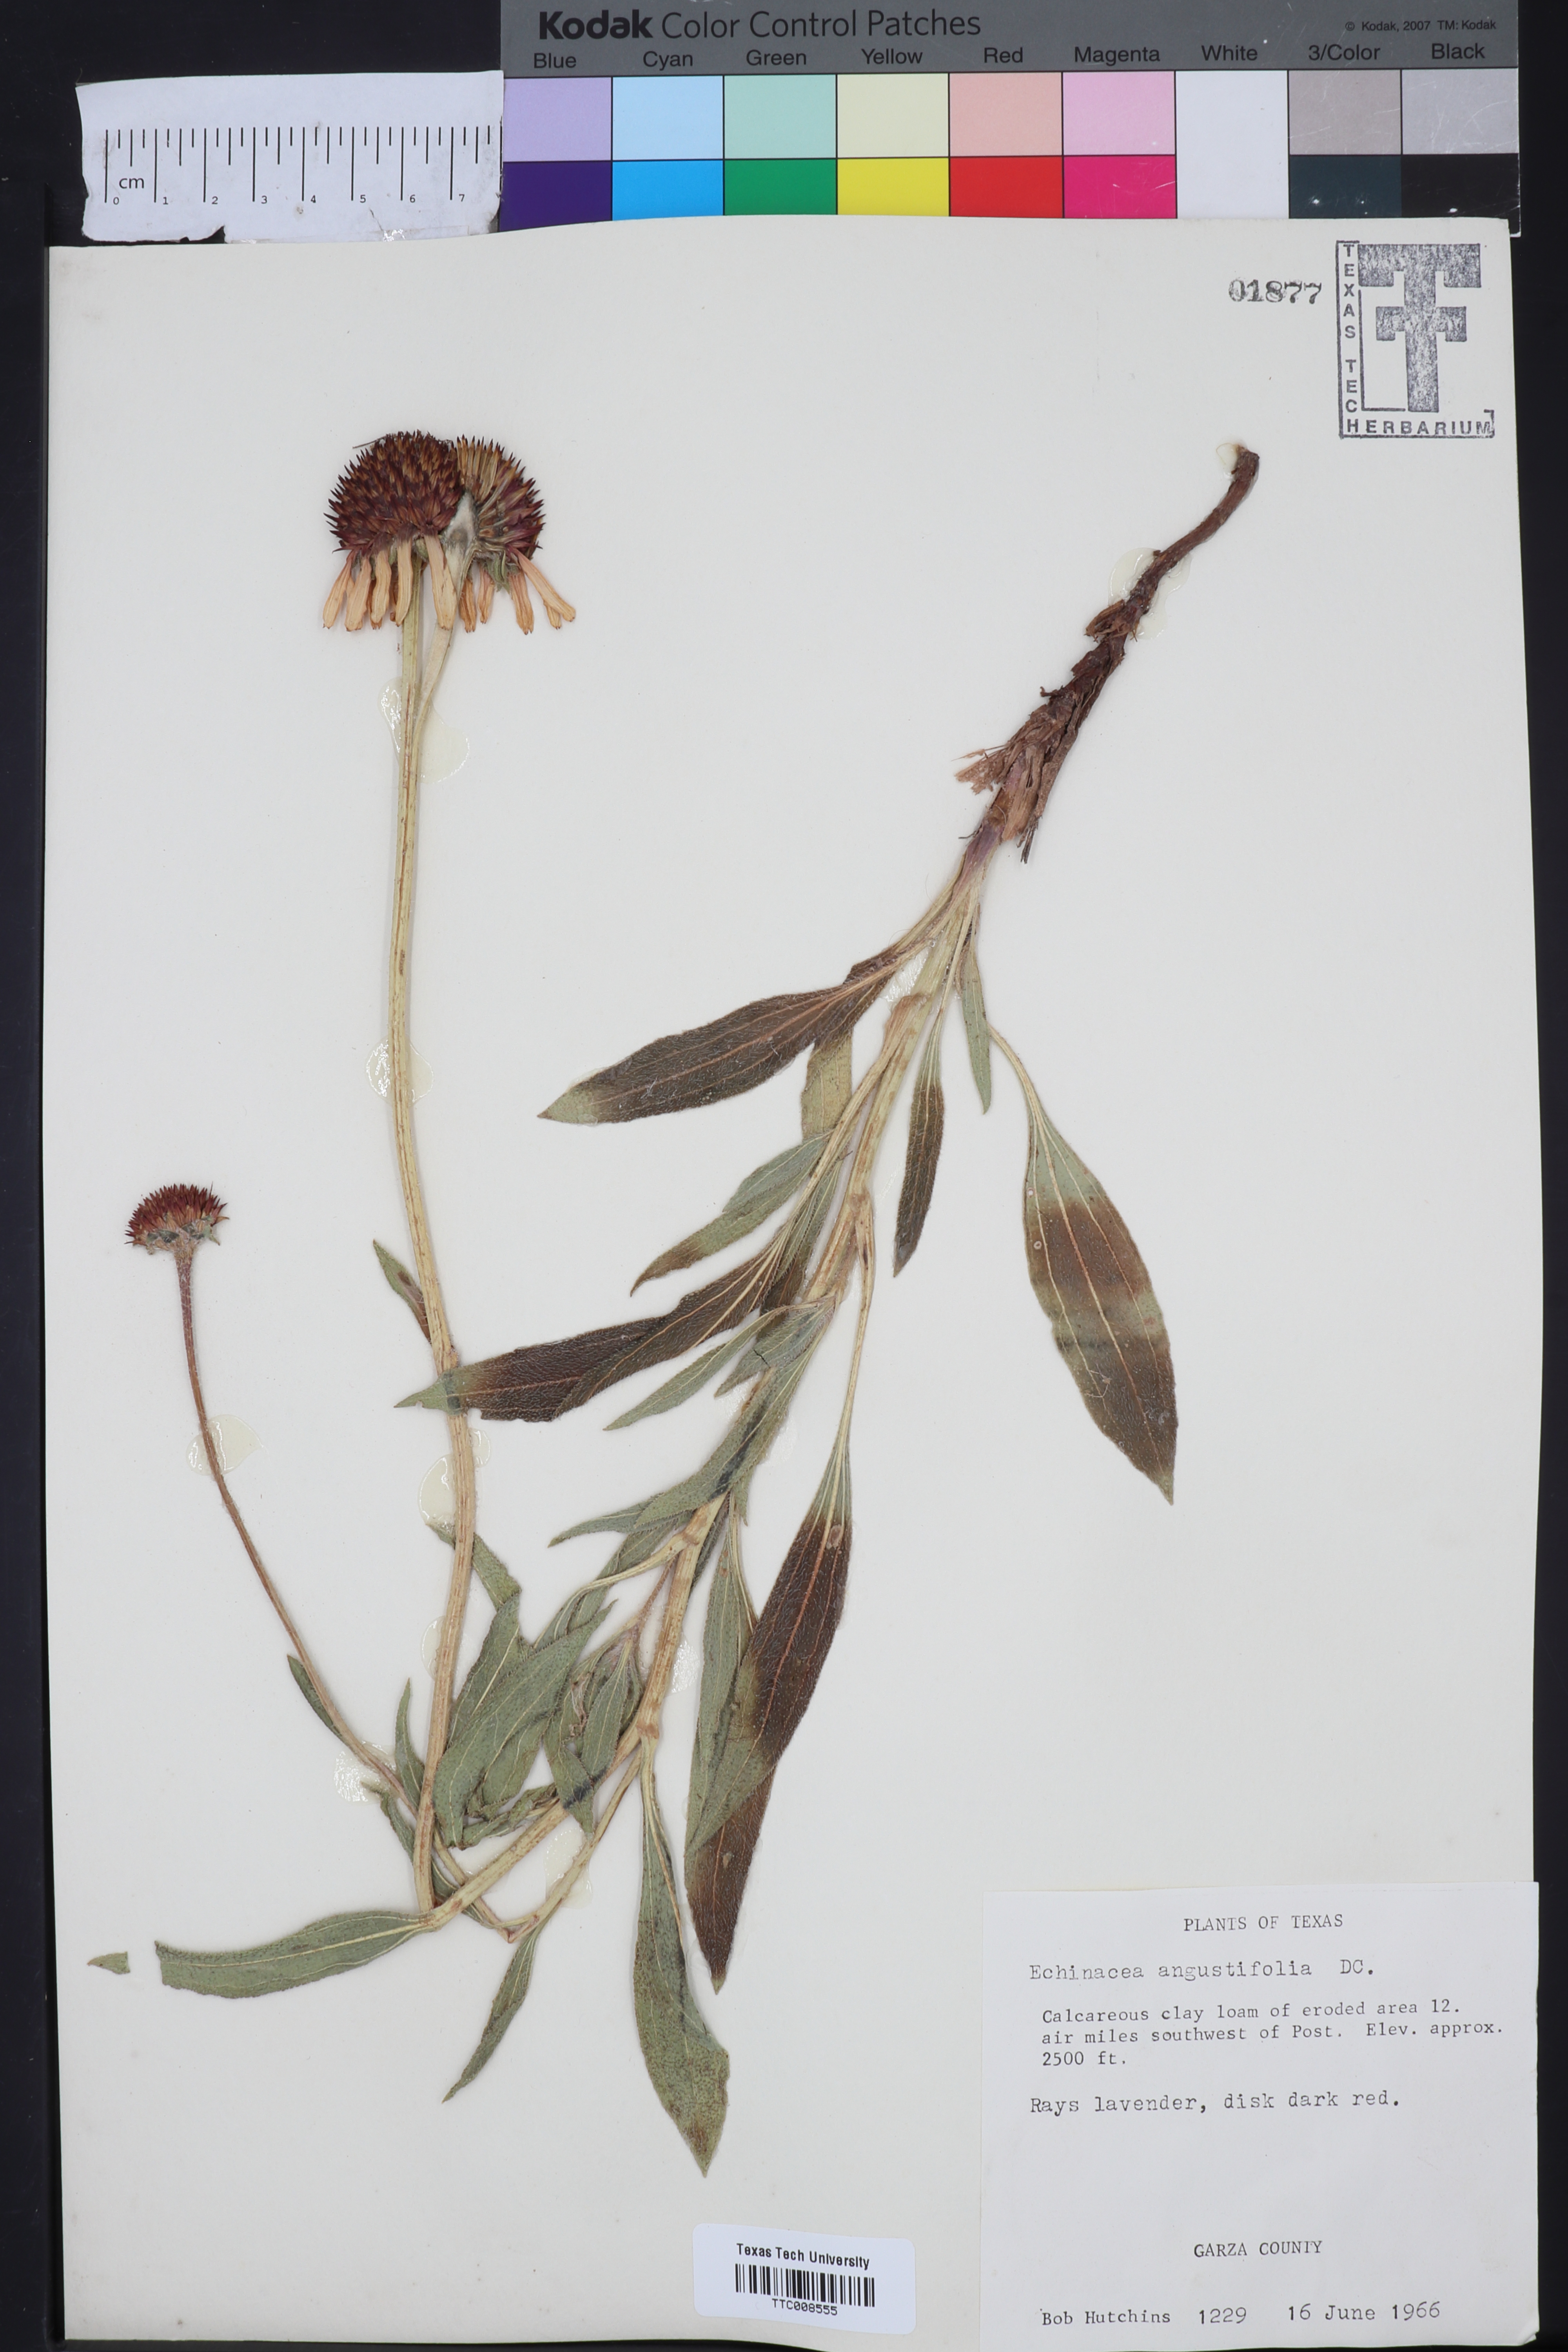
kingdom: Plantae
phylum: Tracheophyta
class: Magnoliopsida
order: Asterales
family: Asteraceae
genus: Echinacea
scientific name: Echinacea angustifolia
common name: Black-sampson echinacea
